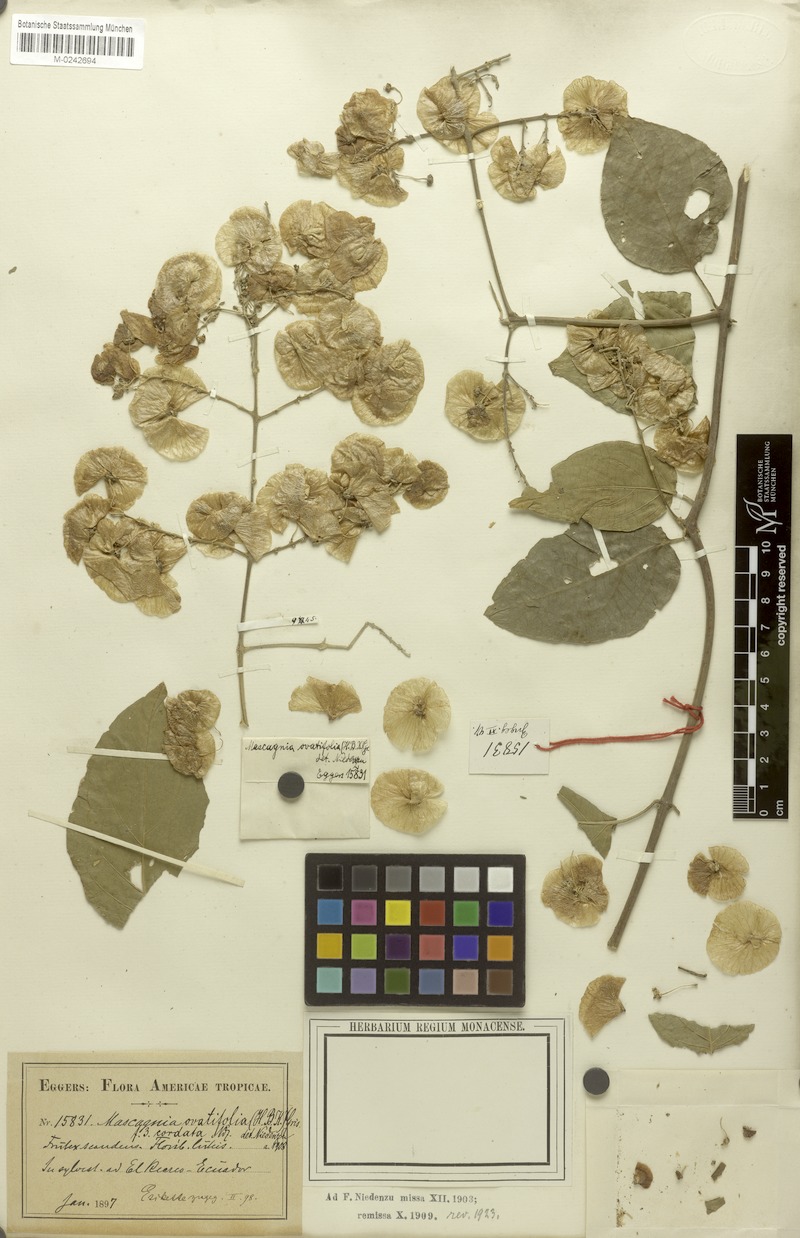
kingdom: Plantae
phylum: Tracheophyta
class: Magnoliopsida
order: Malpighiales
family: Malpighiaceae
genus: Mascagnia
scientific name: Mascagnia divaricata
